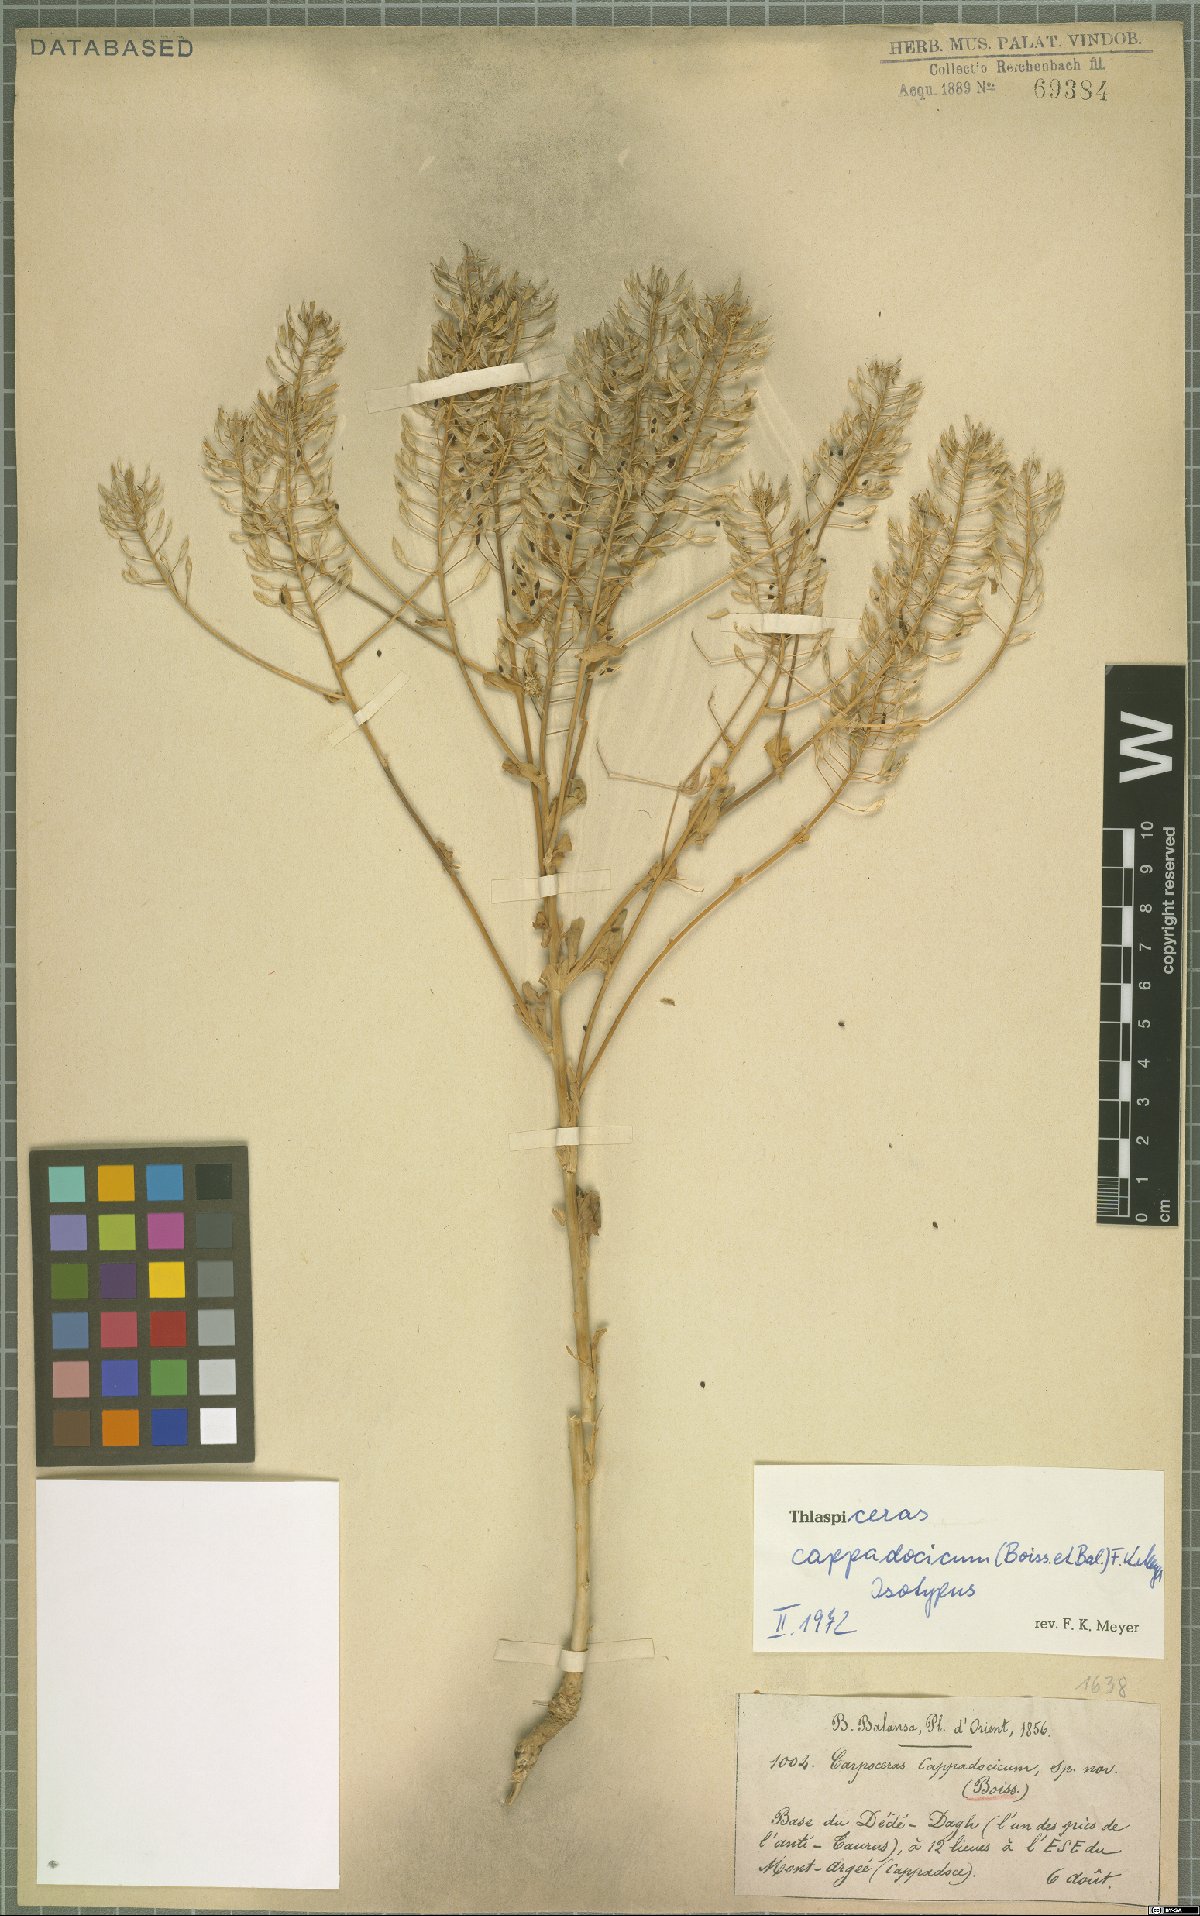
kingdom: Plantae
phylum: Tracheophyta
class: Magnoliopsida
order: Brassicales
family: Brassicaceae
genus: Noccaea
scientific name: Noccaea cappadocica
